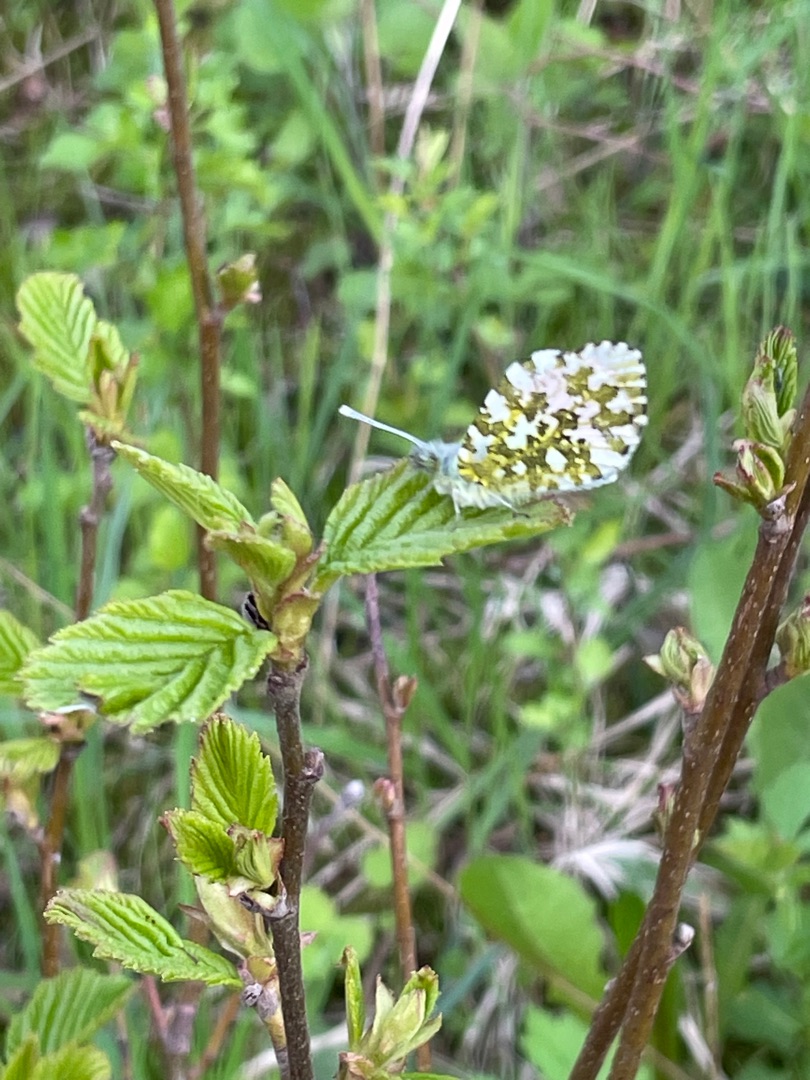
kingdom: Animalia
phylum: Arthropoda
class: Insecta
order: Lepidoptera
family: Pieridae
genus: Anthocharis
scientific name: Anthocharis cardamines
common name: Aurora
